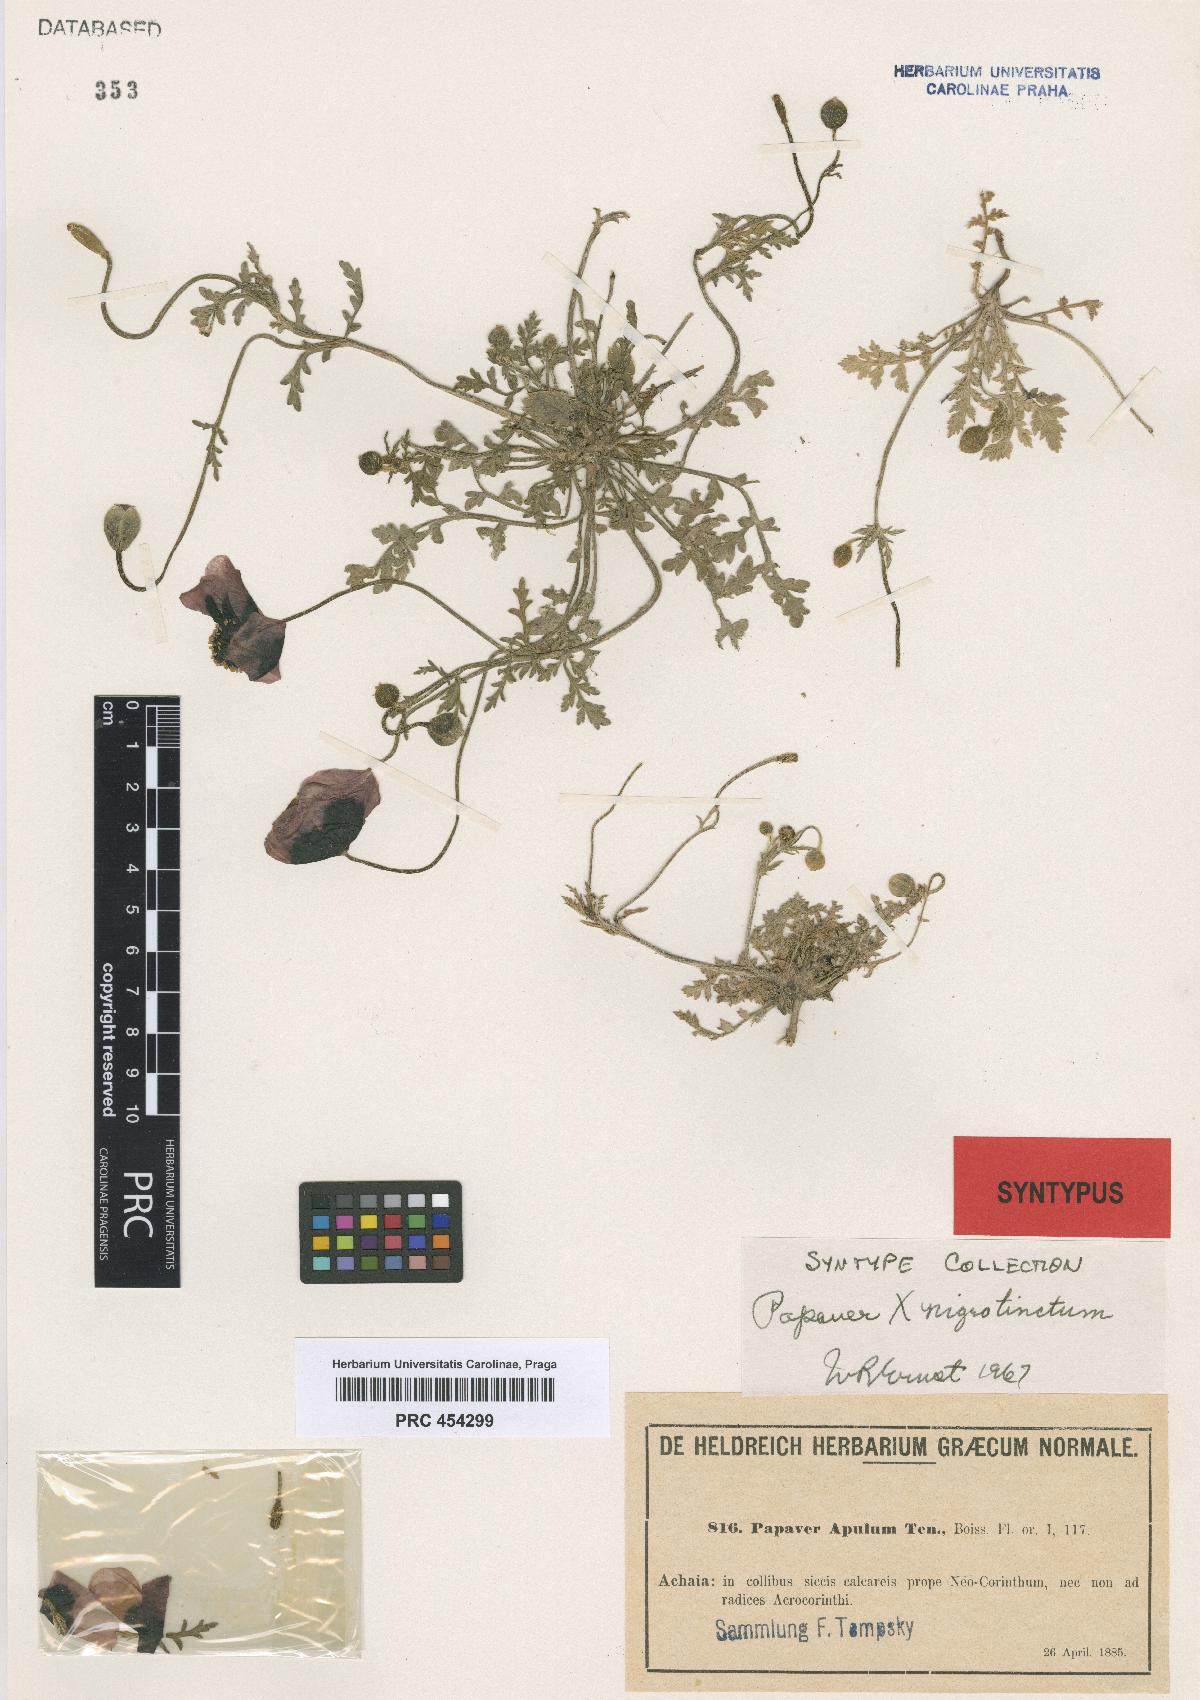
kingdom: Plantae
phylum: Tracheophyta
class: Magnoliopsida
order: Ranunculales
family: Papaveraceae
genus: Roemeria
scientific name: Roemeria apula
